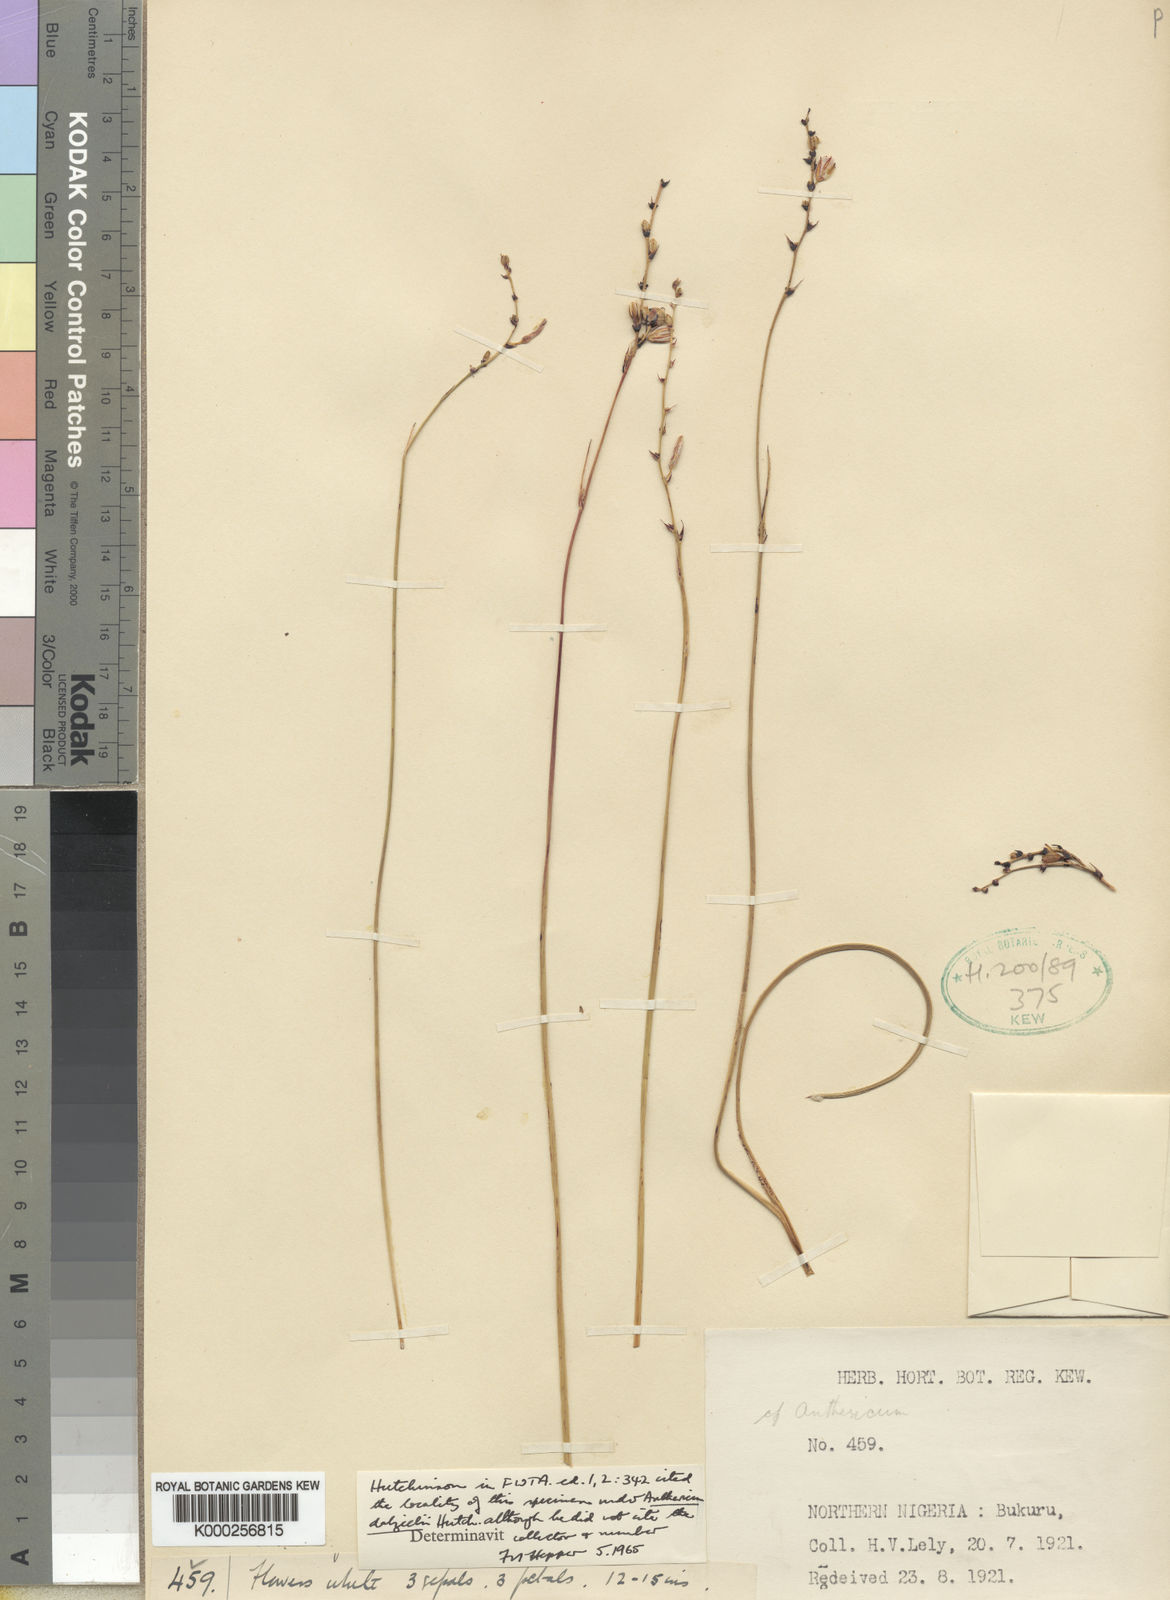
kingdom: Plantae
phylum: Tracheophyta
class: Liliopsida
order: Asparagales
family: Asparagaceae
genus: Chlorophytum
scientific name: Chlorophytum dalzielii
